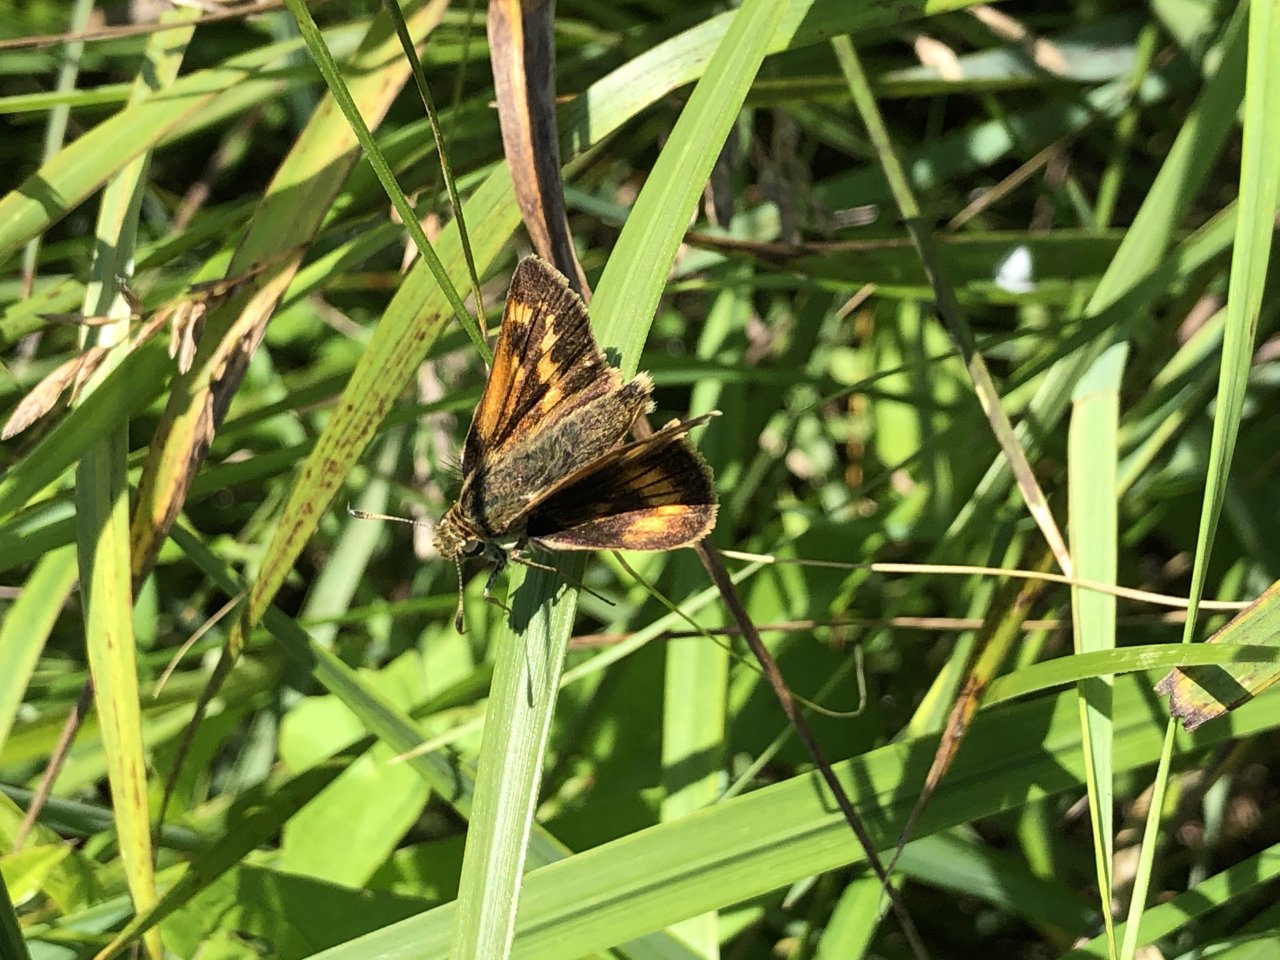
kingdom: Animalia
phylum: Arthropoda
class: Insecta
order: Lepidoptera
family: Hesperiidae
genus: Polites
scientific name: Polites
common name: Long Dash Skipper
